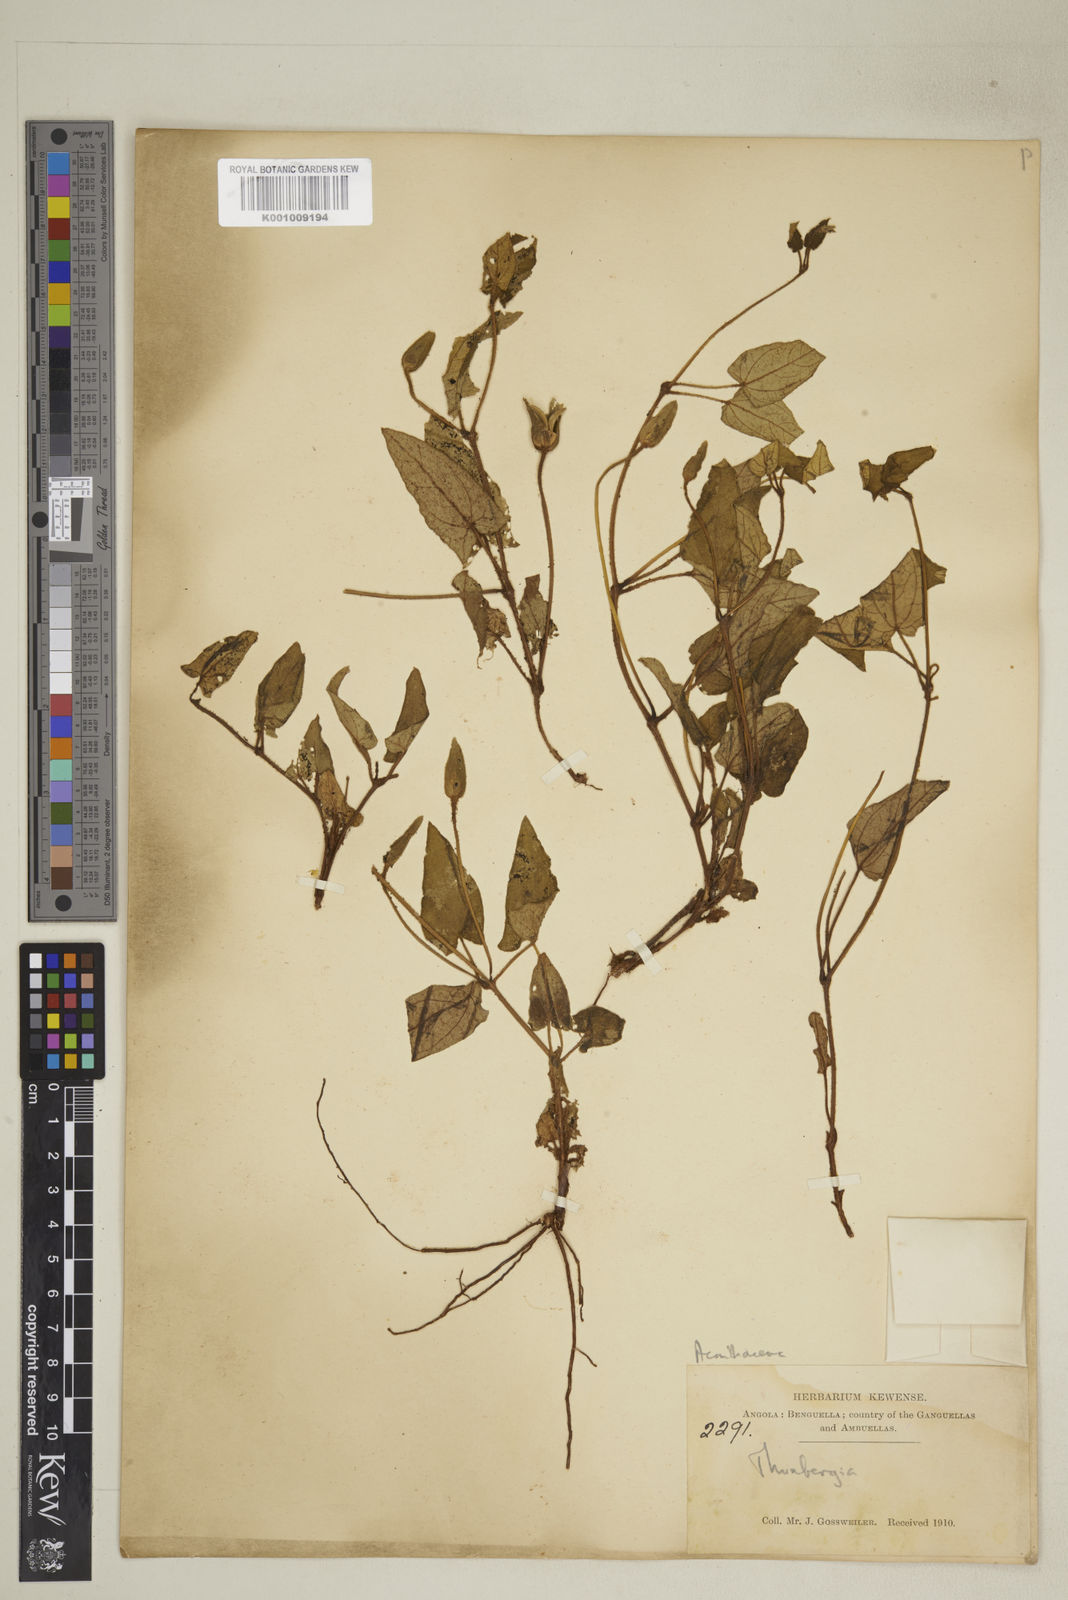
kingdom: Plantae
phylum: Tracheophyta
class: Magnoliopsida
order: Lamiales
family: Acanthaceae
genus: Thunbergia
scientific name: Thunbergia armipotens
